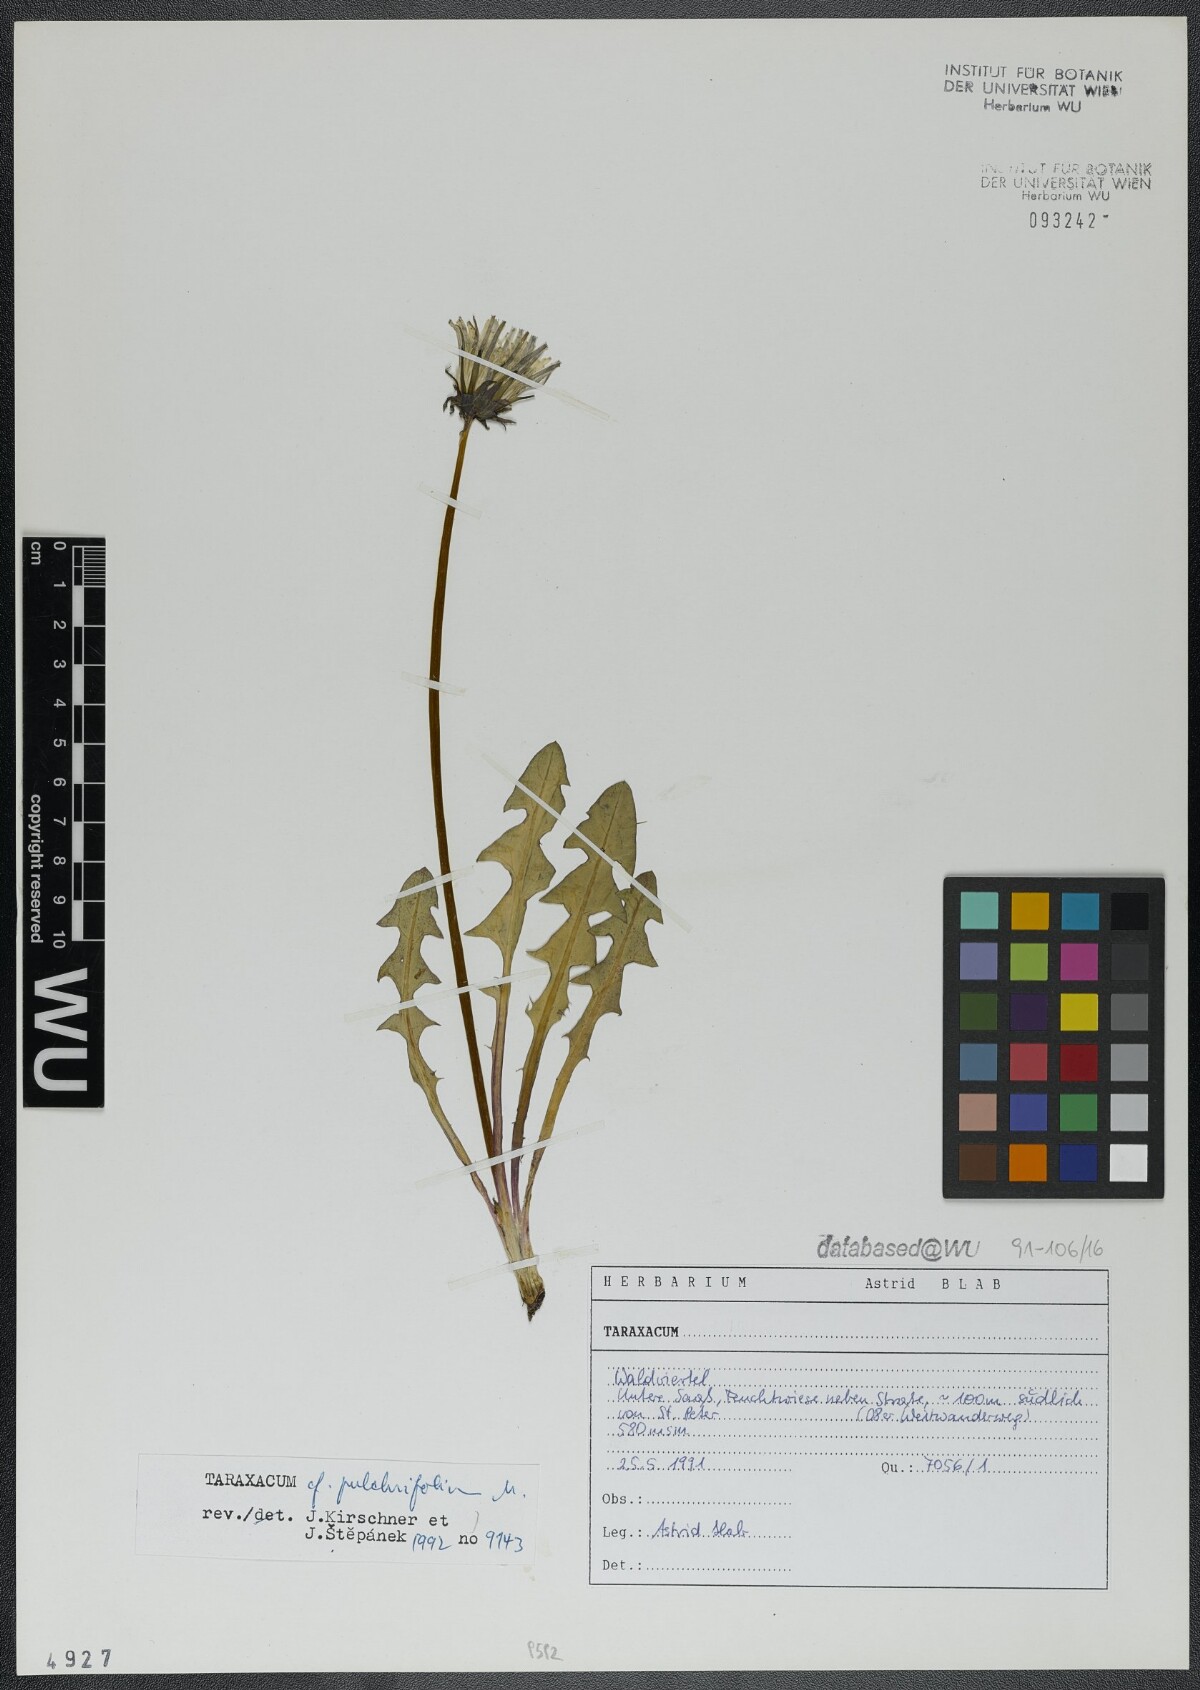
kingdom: Plantae
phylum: Tracheophyta
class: Magnoliopsida
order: Asterales
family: Asteraceae
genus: Taraxacum
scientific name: Taraxacum pulchrifolium
